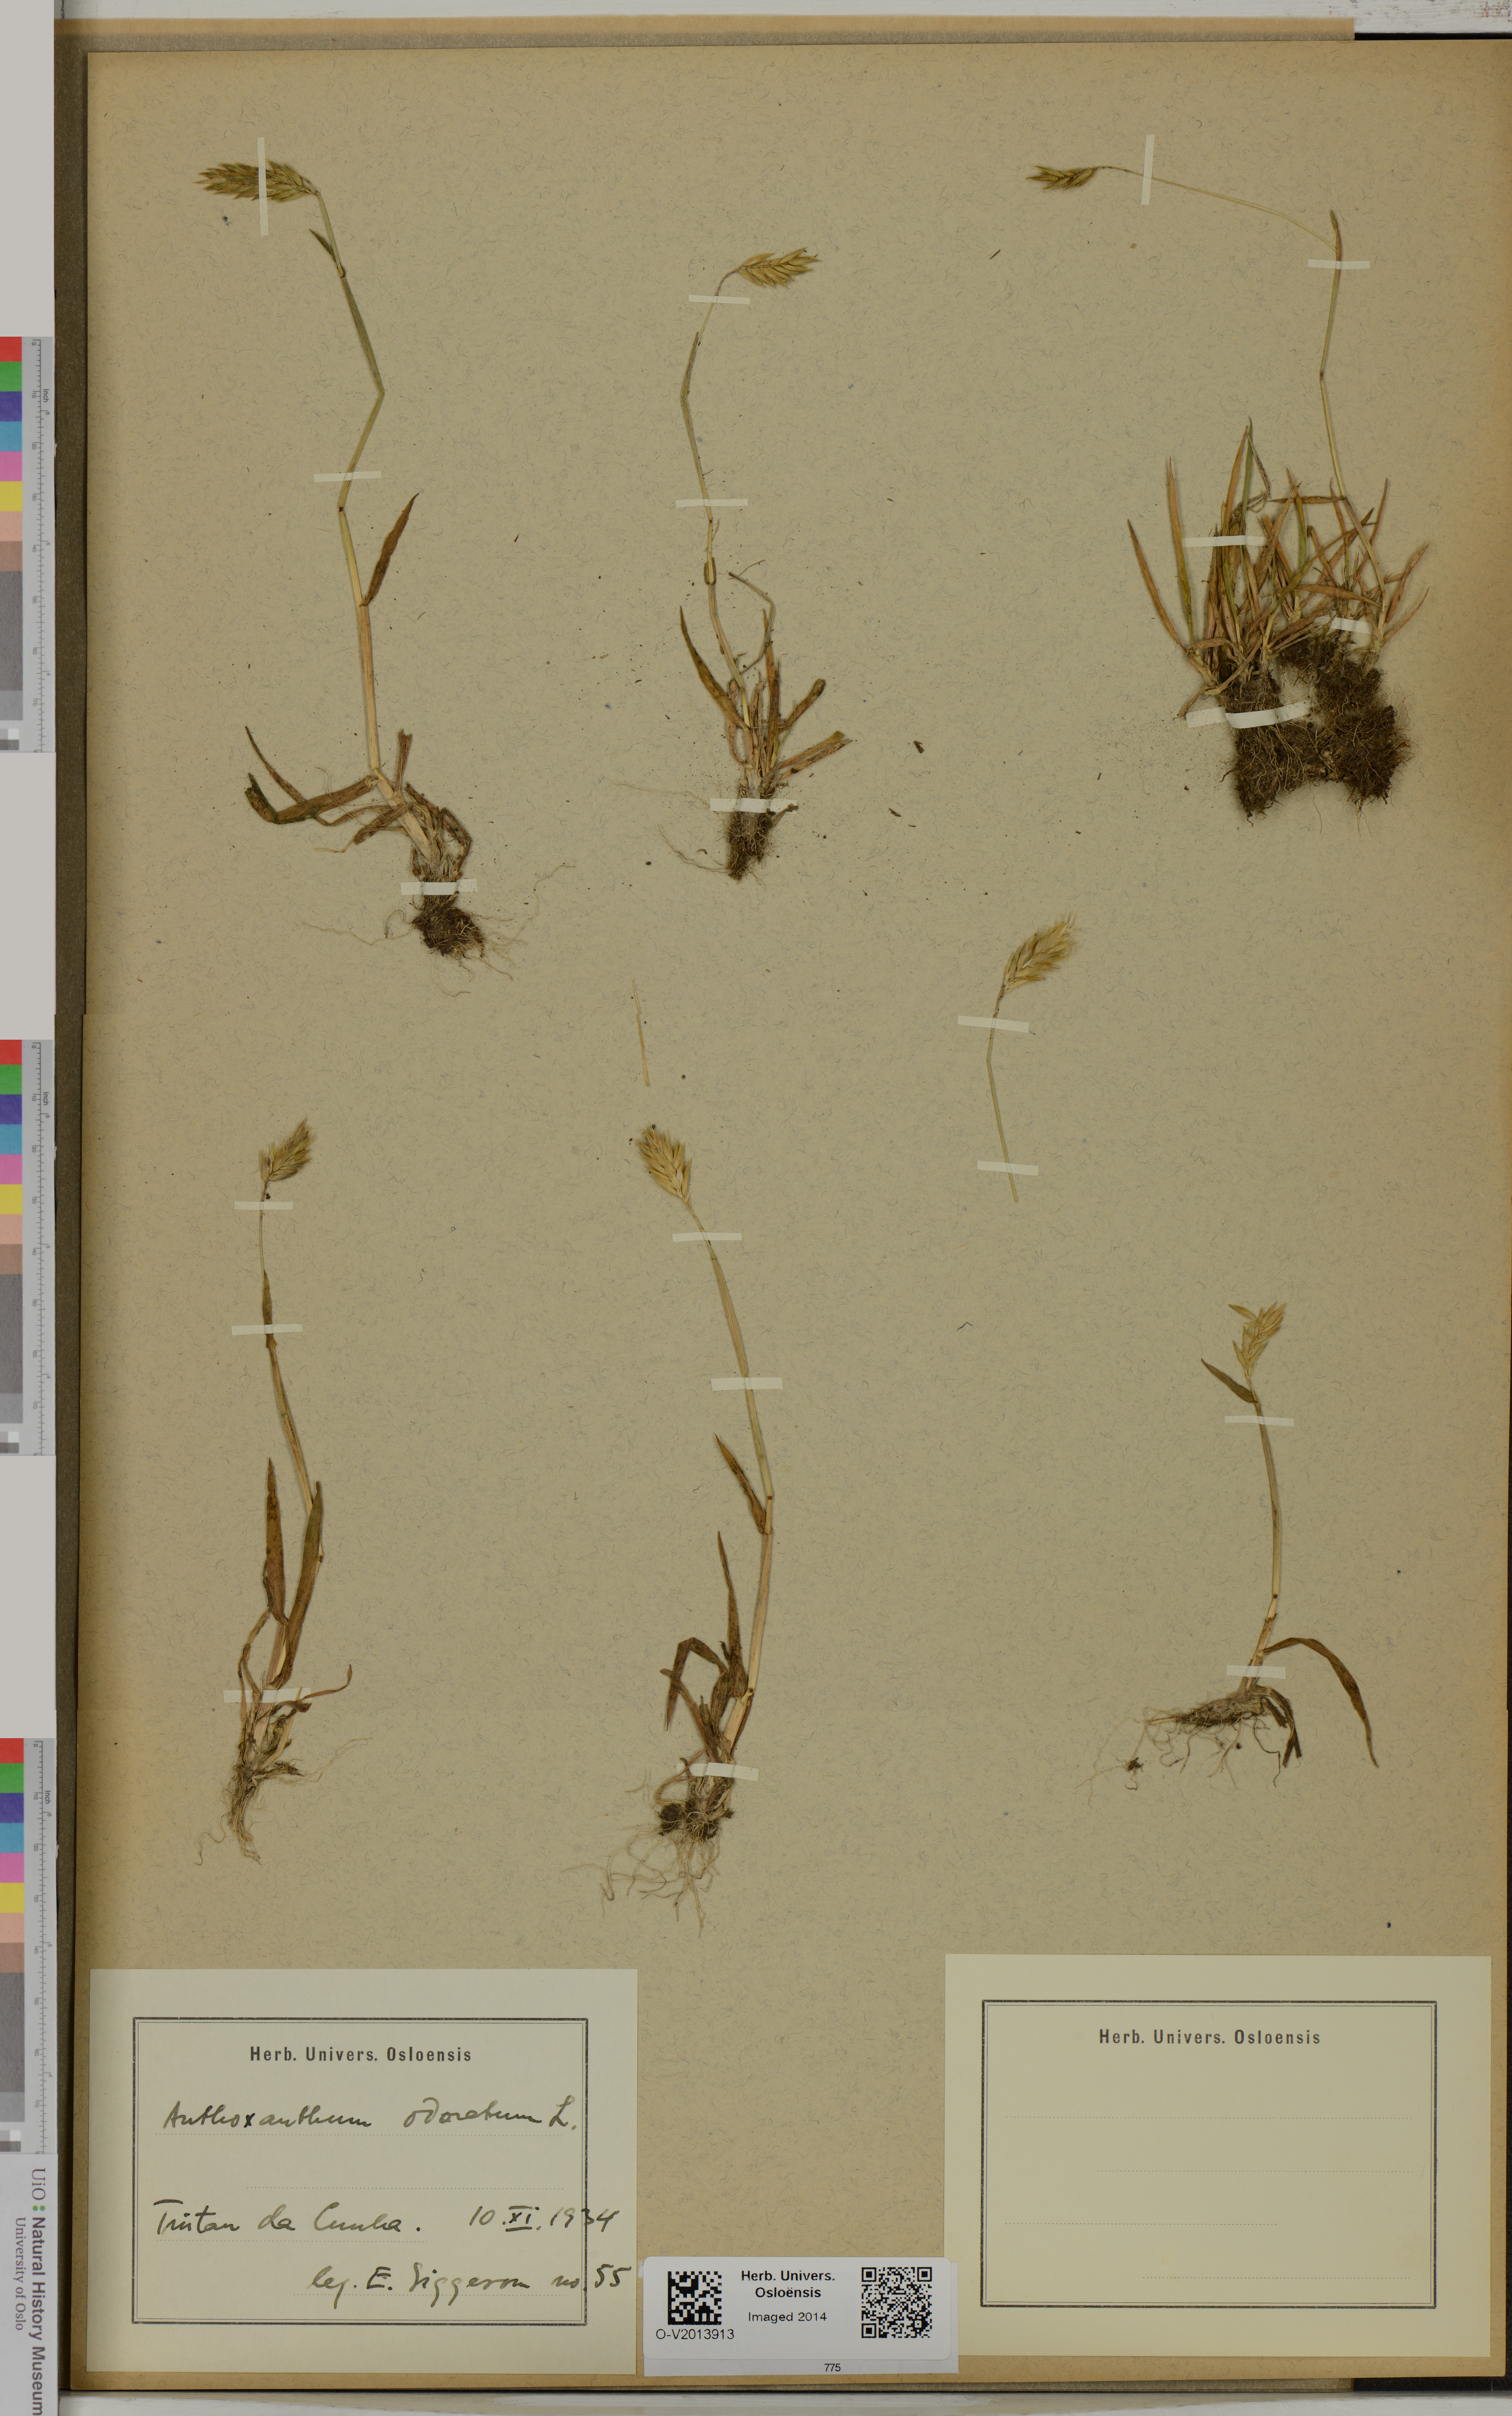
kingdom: Plantae
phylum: Tracheophyta
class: Liliopsida
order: Poales
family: Poaceae
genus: Anthoxanthum
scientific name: Anthoxanthum odoratum
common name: Sweet vernalgrass
